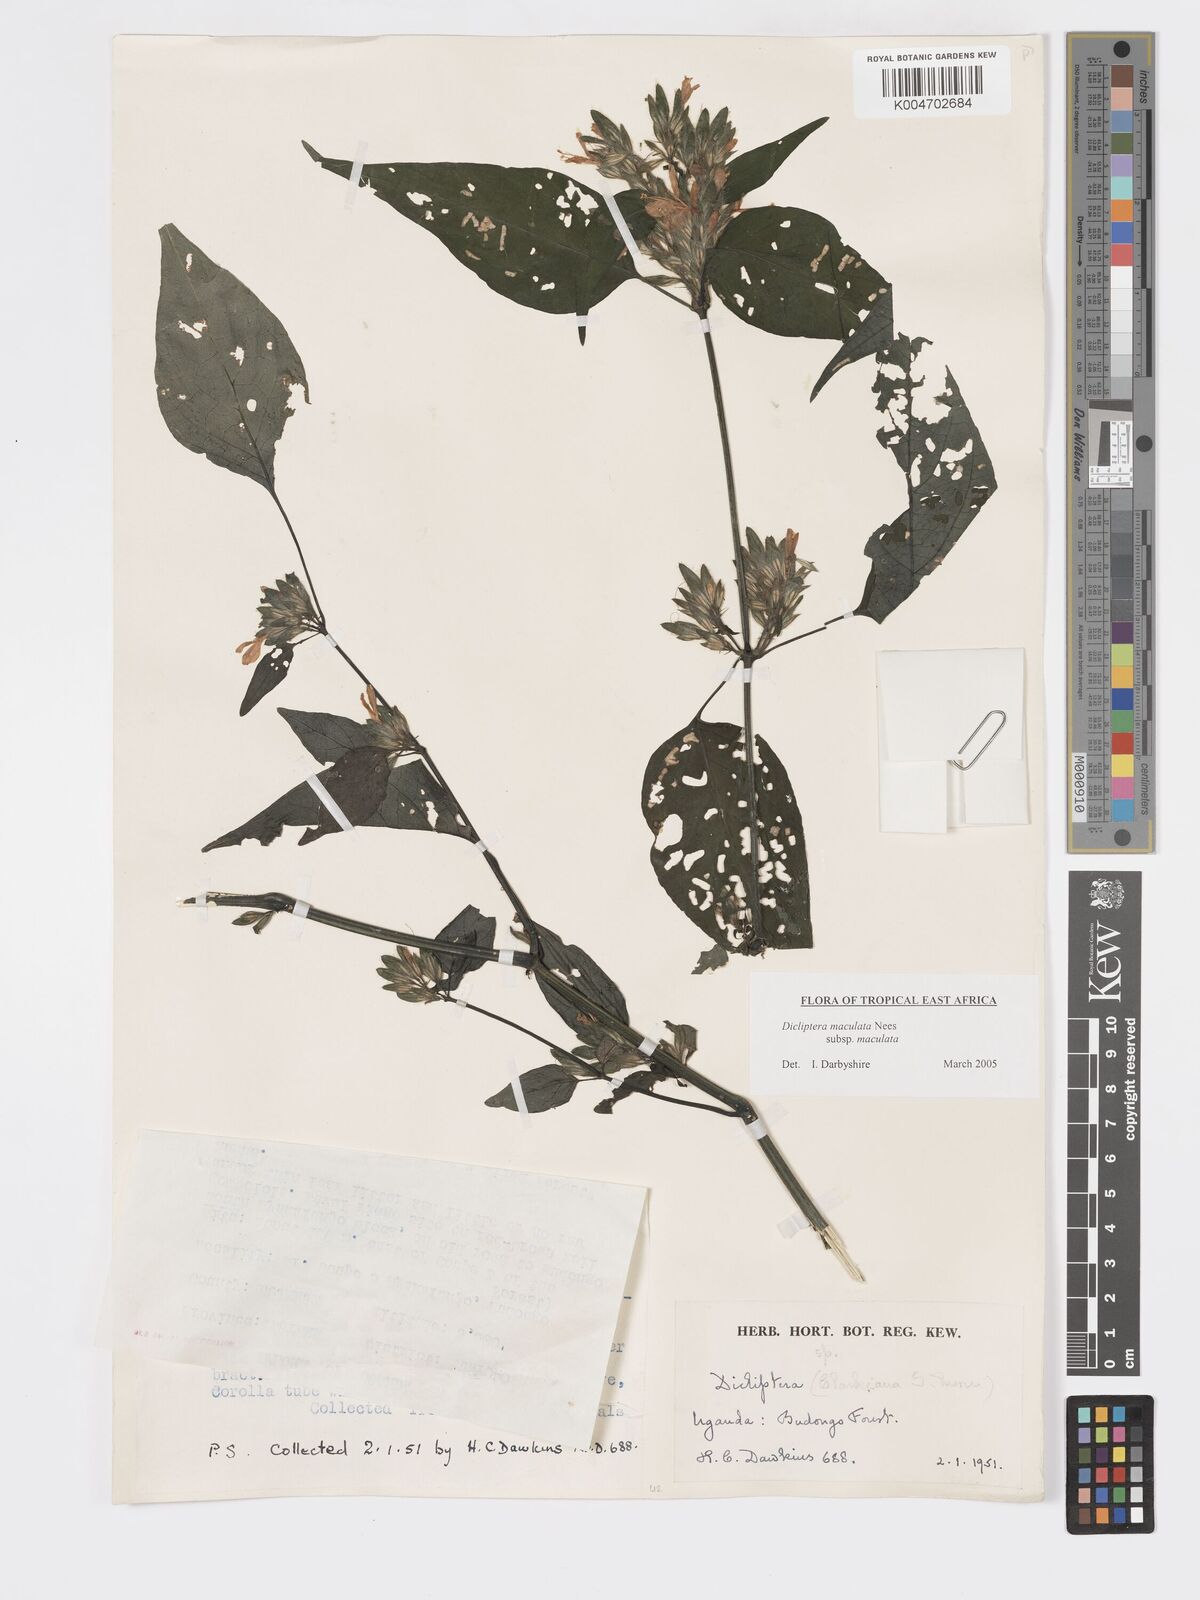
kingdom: Plantae
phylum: Tracheophyta
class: Magnoliopsida
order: Lamiales
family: Acanthaceae
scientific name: Acanthaceae
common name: Acanthaceae
